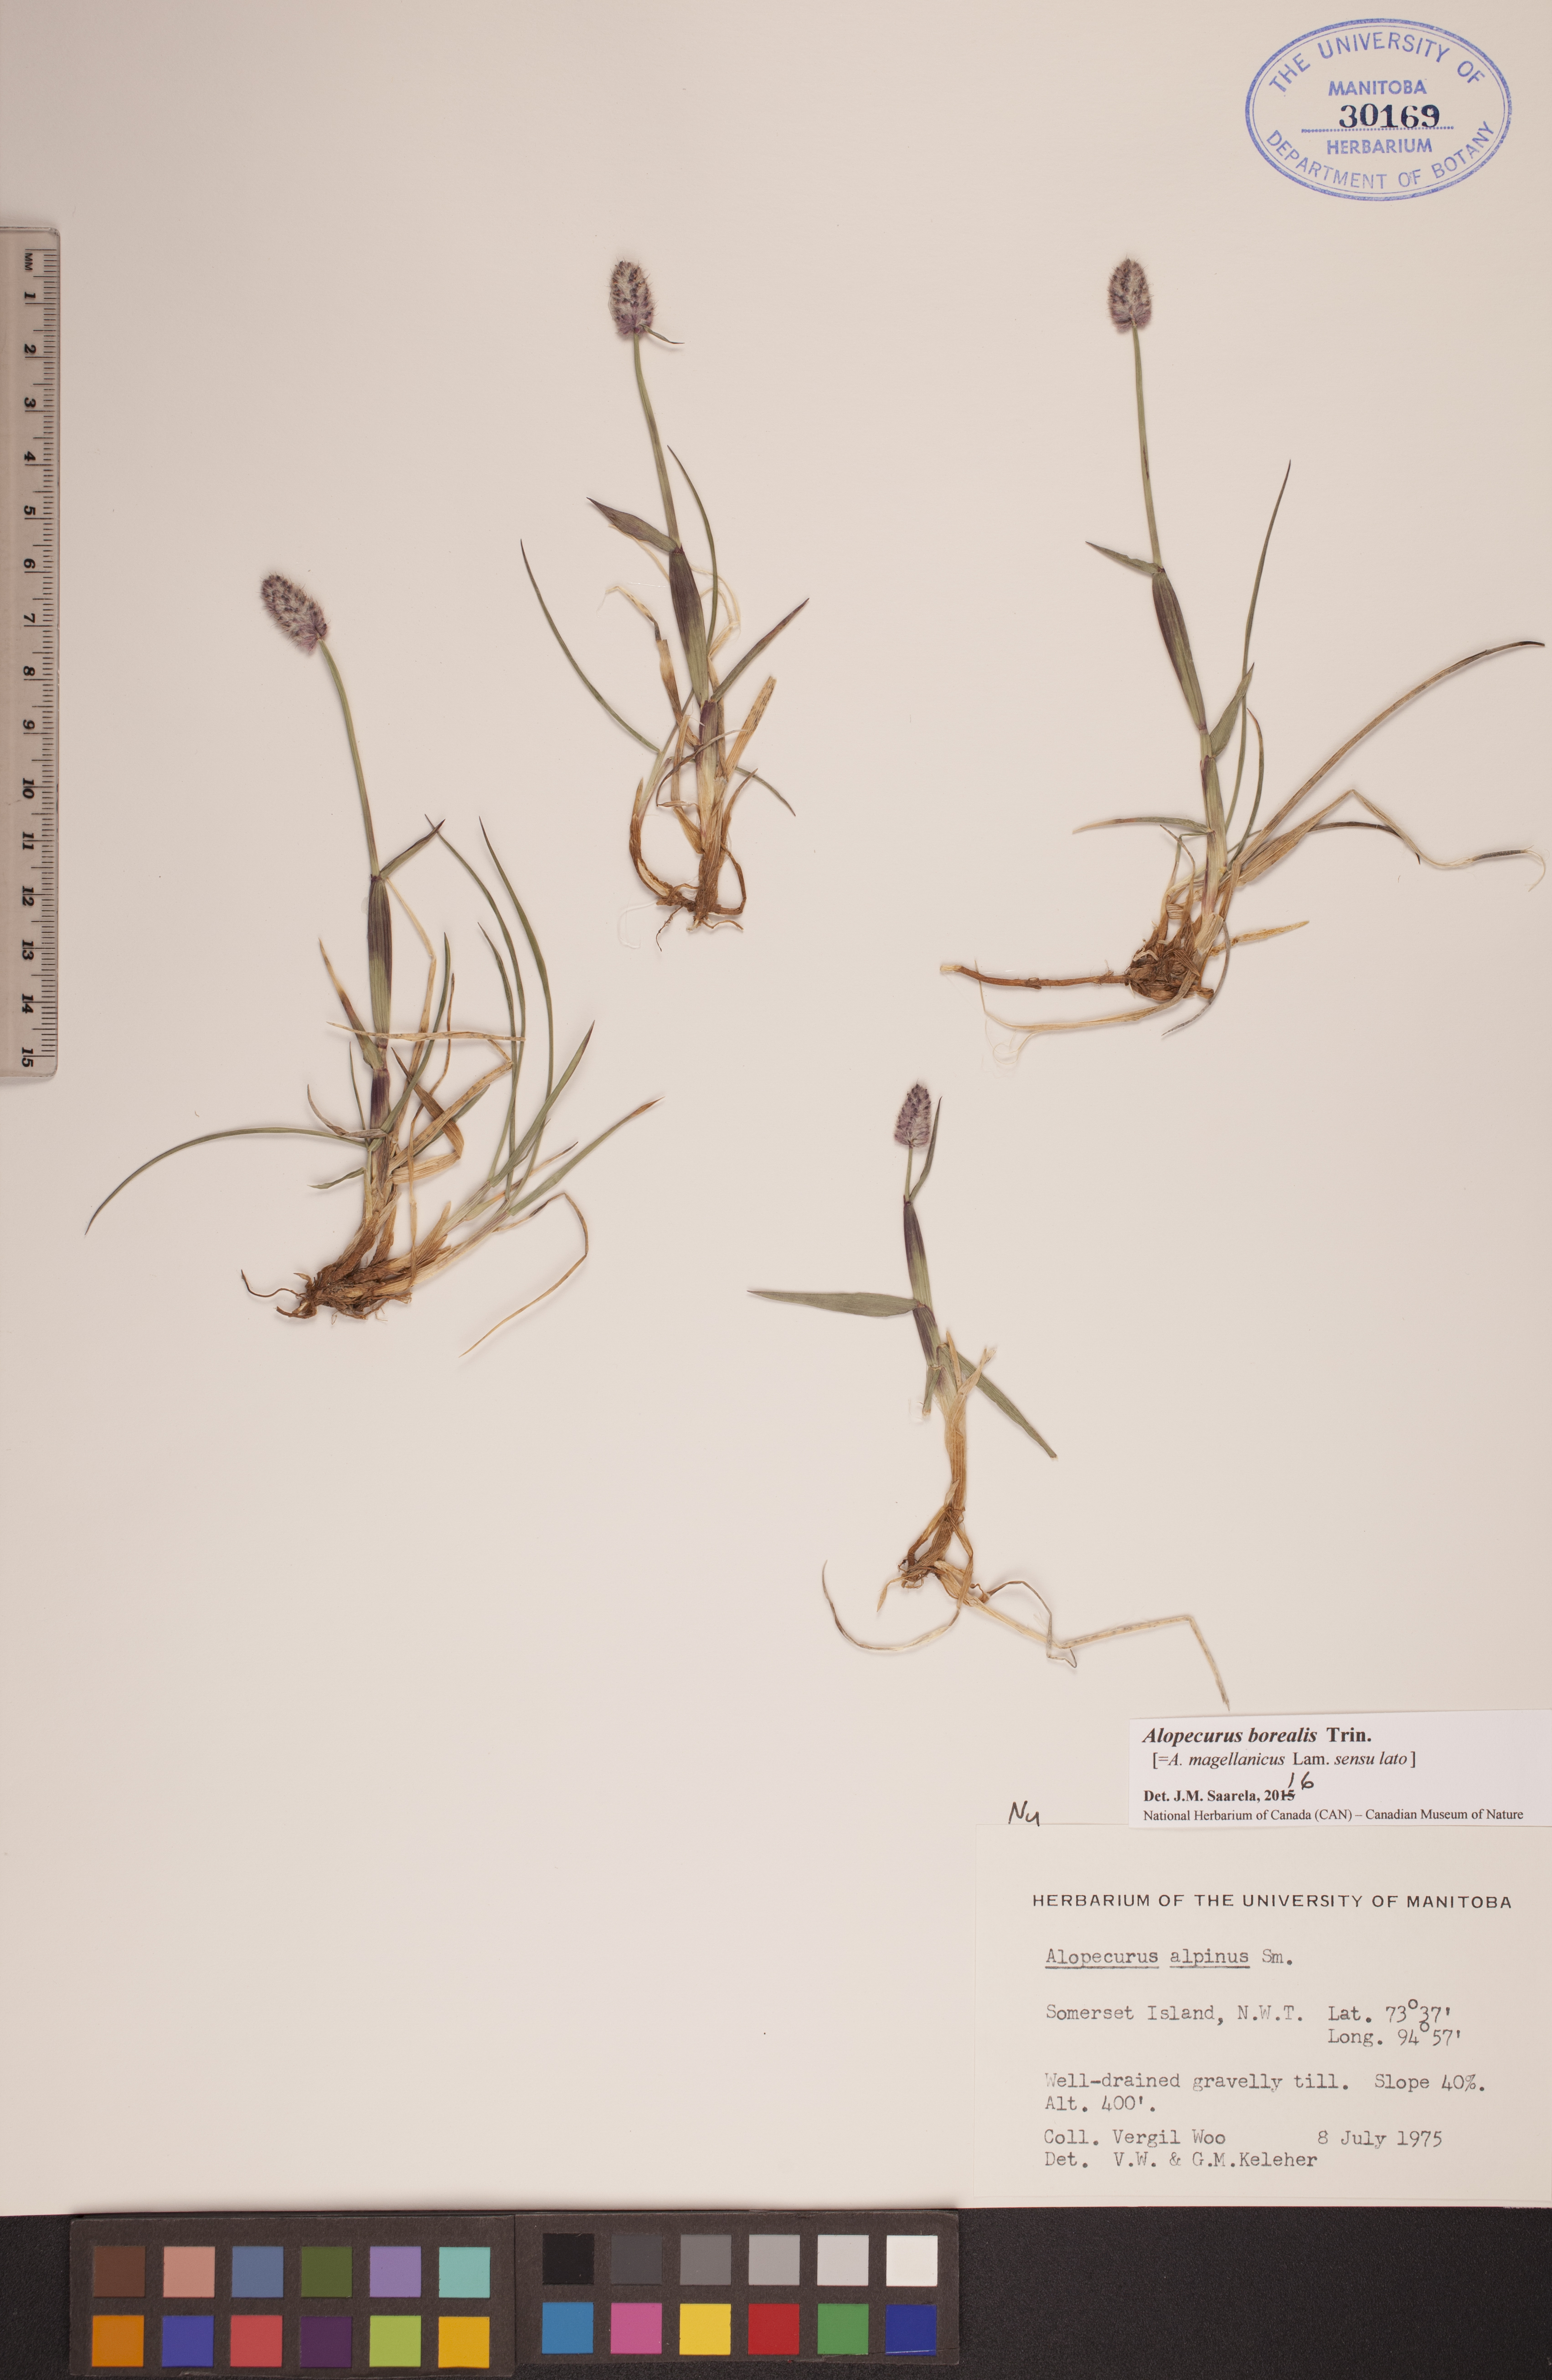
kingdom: Plantae
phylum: Tracheophyta
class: Liliopsida
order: Poales
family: Poaceae
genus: Alopecurus
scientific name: Alopecurus magellanicus
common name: Alpine foxtail
